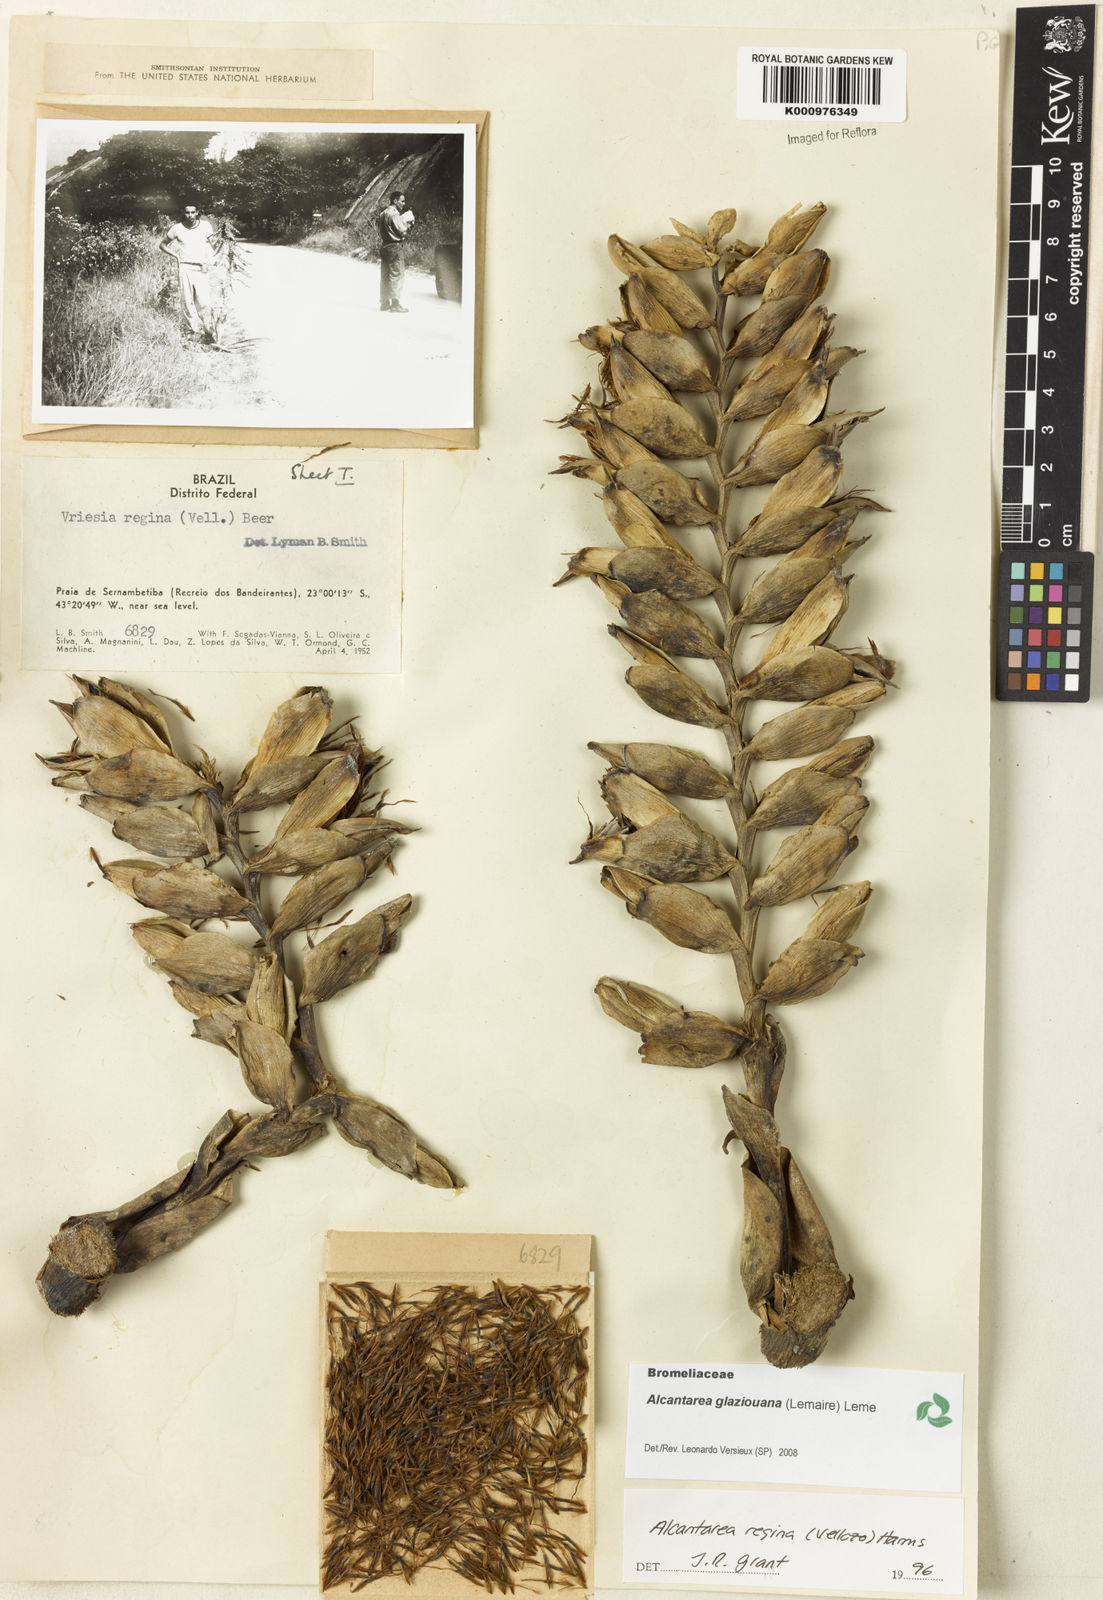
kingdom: Plantae
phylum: Tracheophyta
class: Liliopsida
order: Poales
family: Bromeliaceae
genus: Vriesea
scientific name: Vriesea
